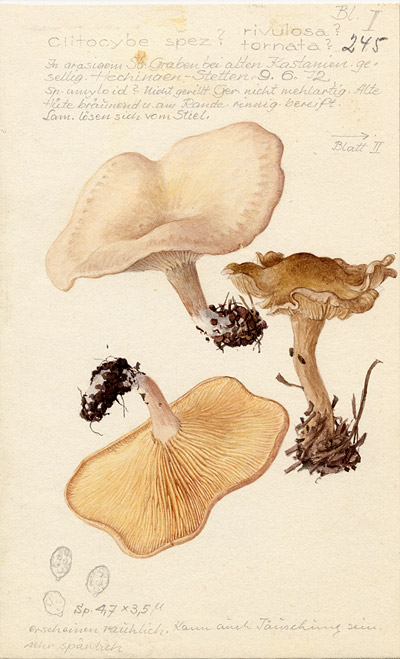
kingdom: Fungi
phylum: Basidiomycota
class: Agaricomycetes
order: Agaricales
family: Tricholomataceae
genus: Clitocybe
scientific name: Clitocybe
